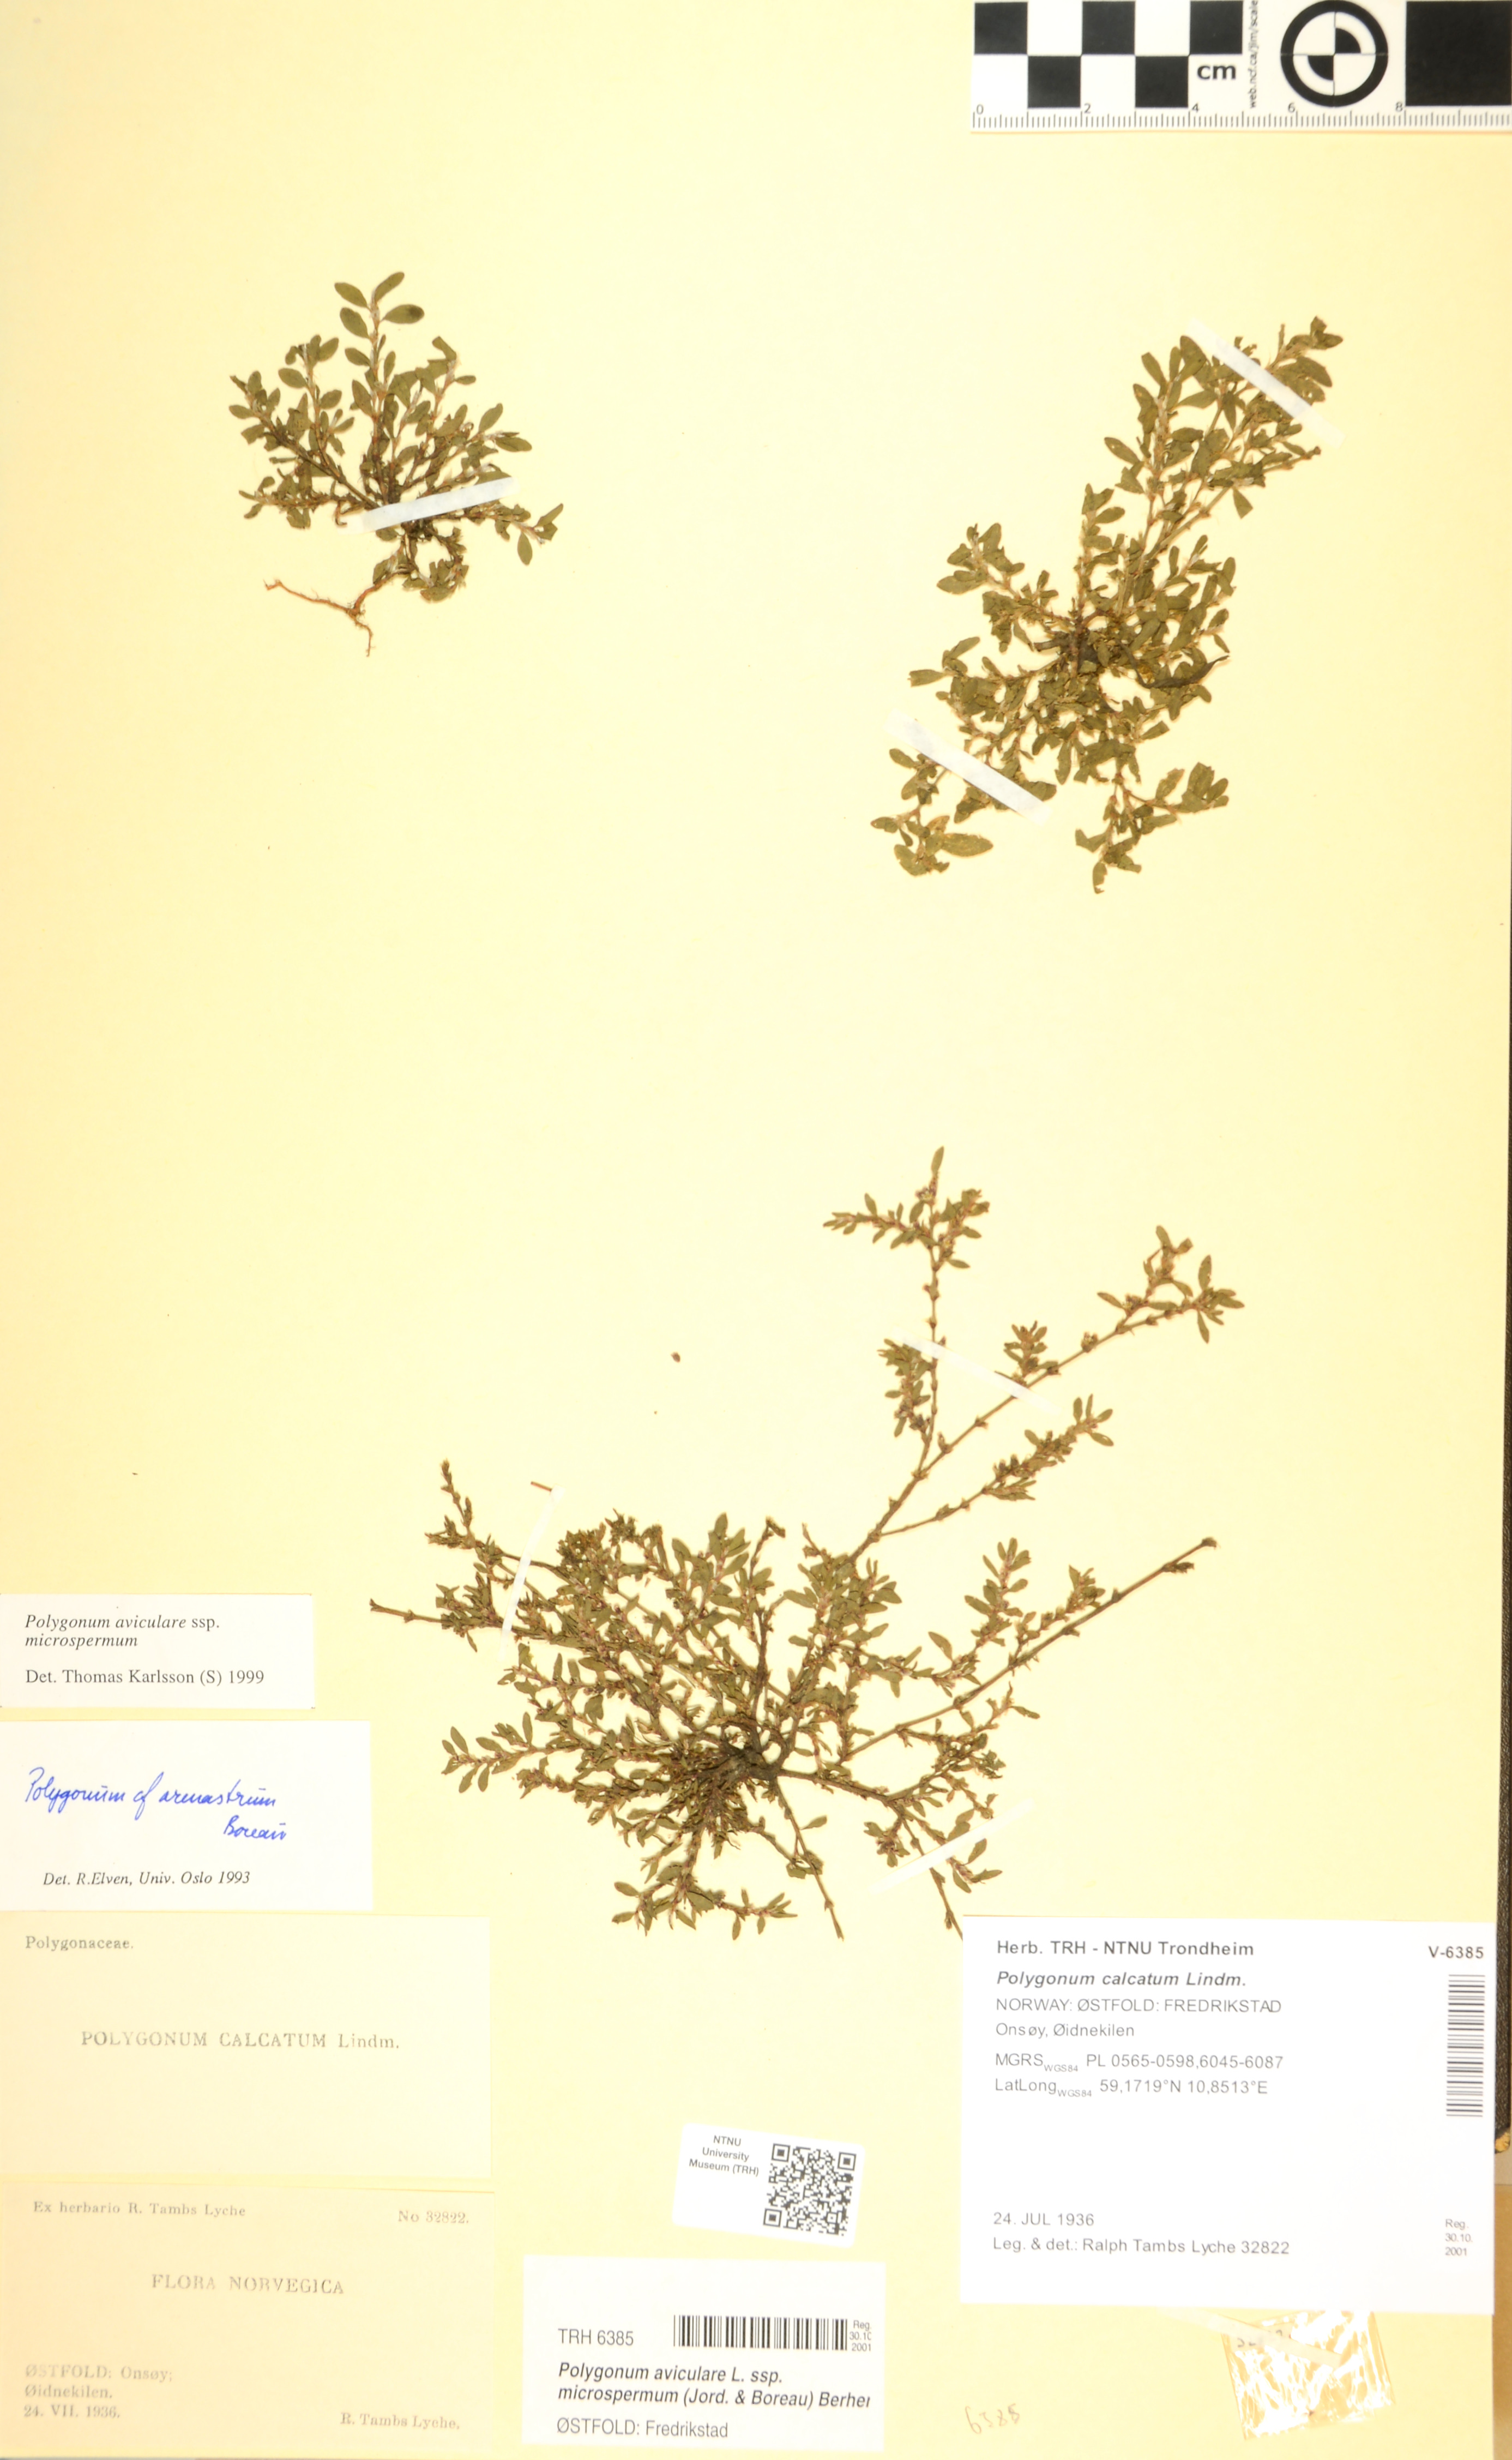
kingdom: Plantae
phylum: Tracheophyta
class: Magnoliopsida
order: Caryophyllales
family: Polygonaceae
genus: Polygonum
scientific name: Polygonum arenastrum
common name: Equal-leaved knotgrass
